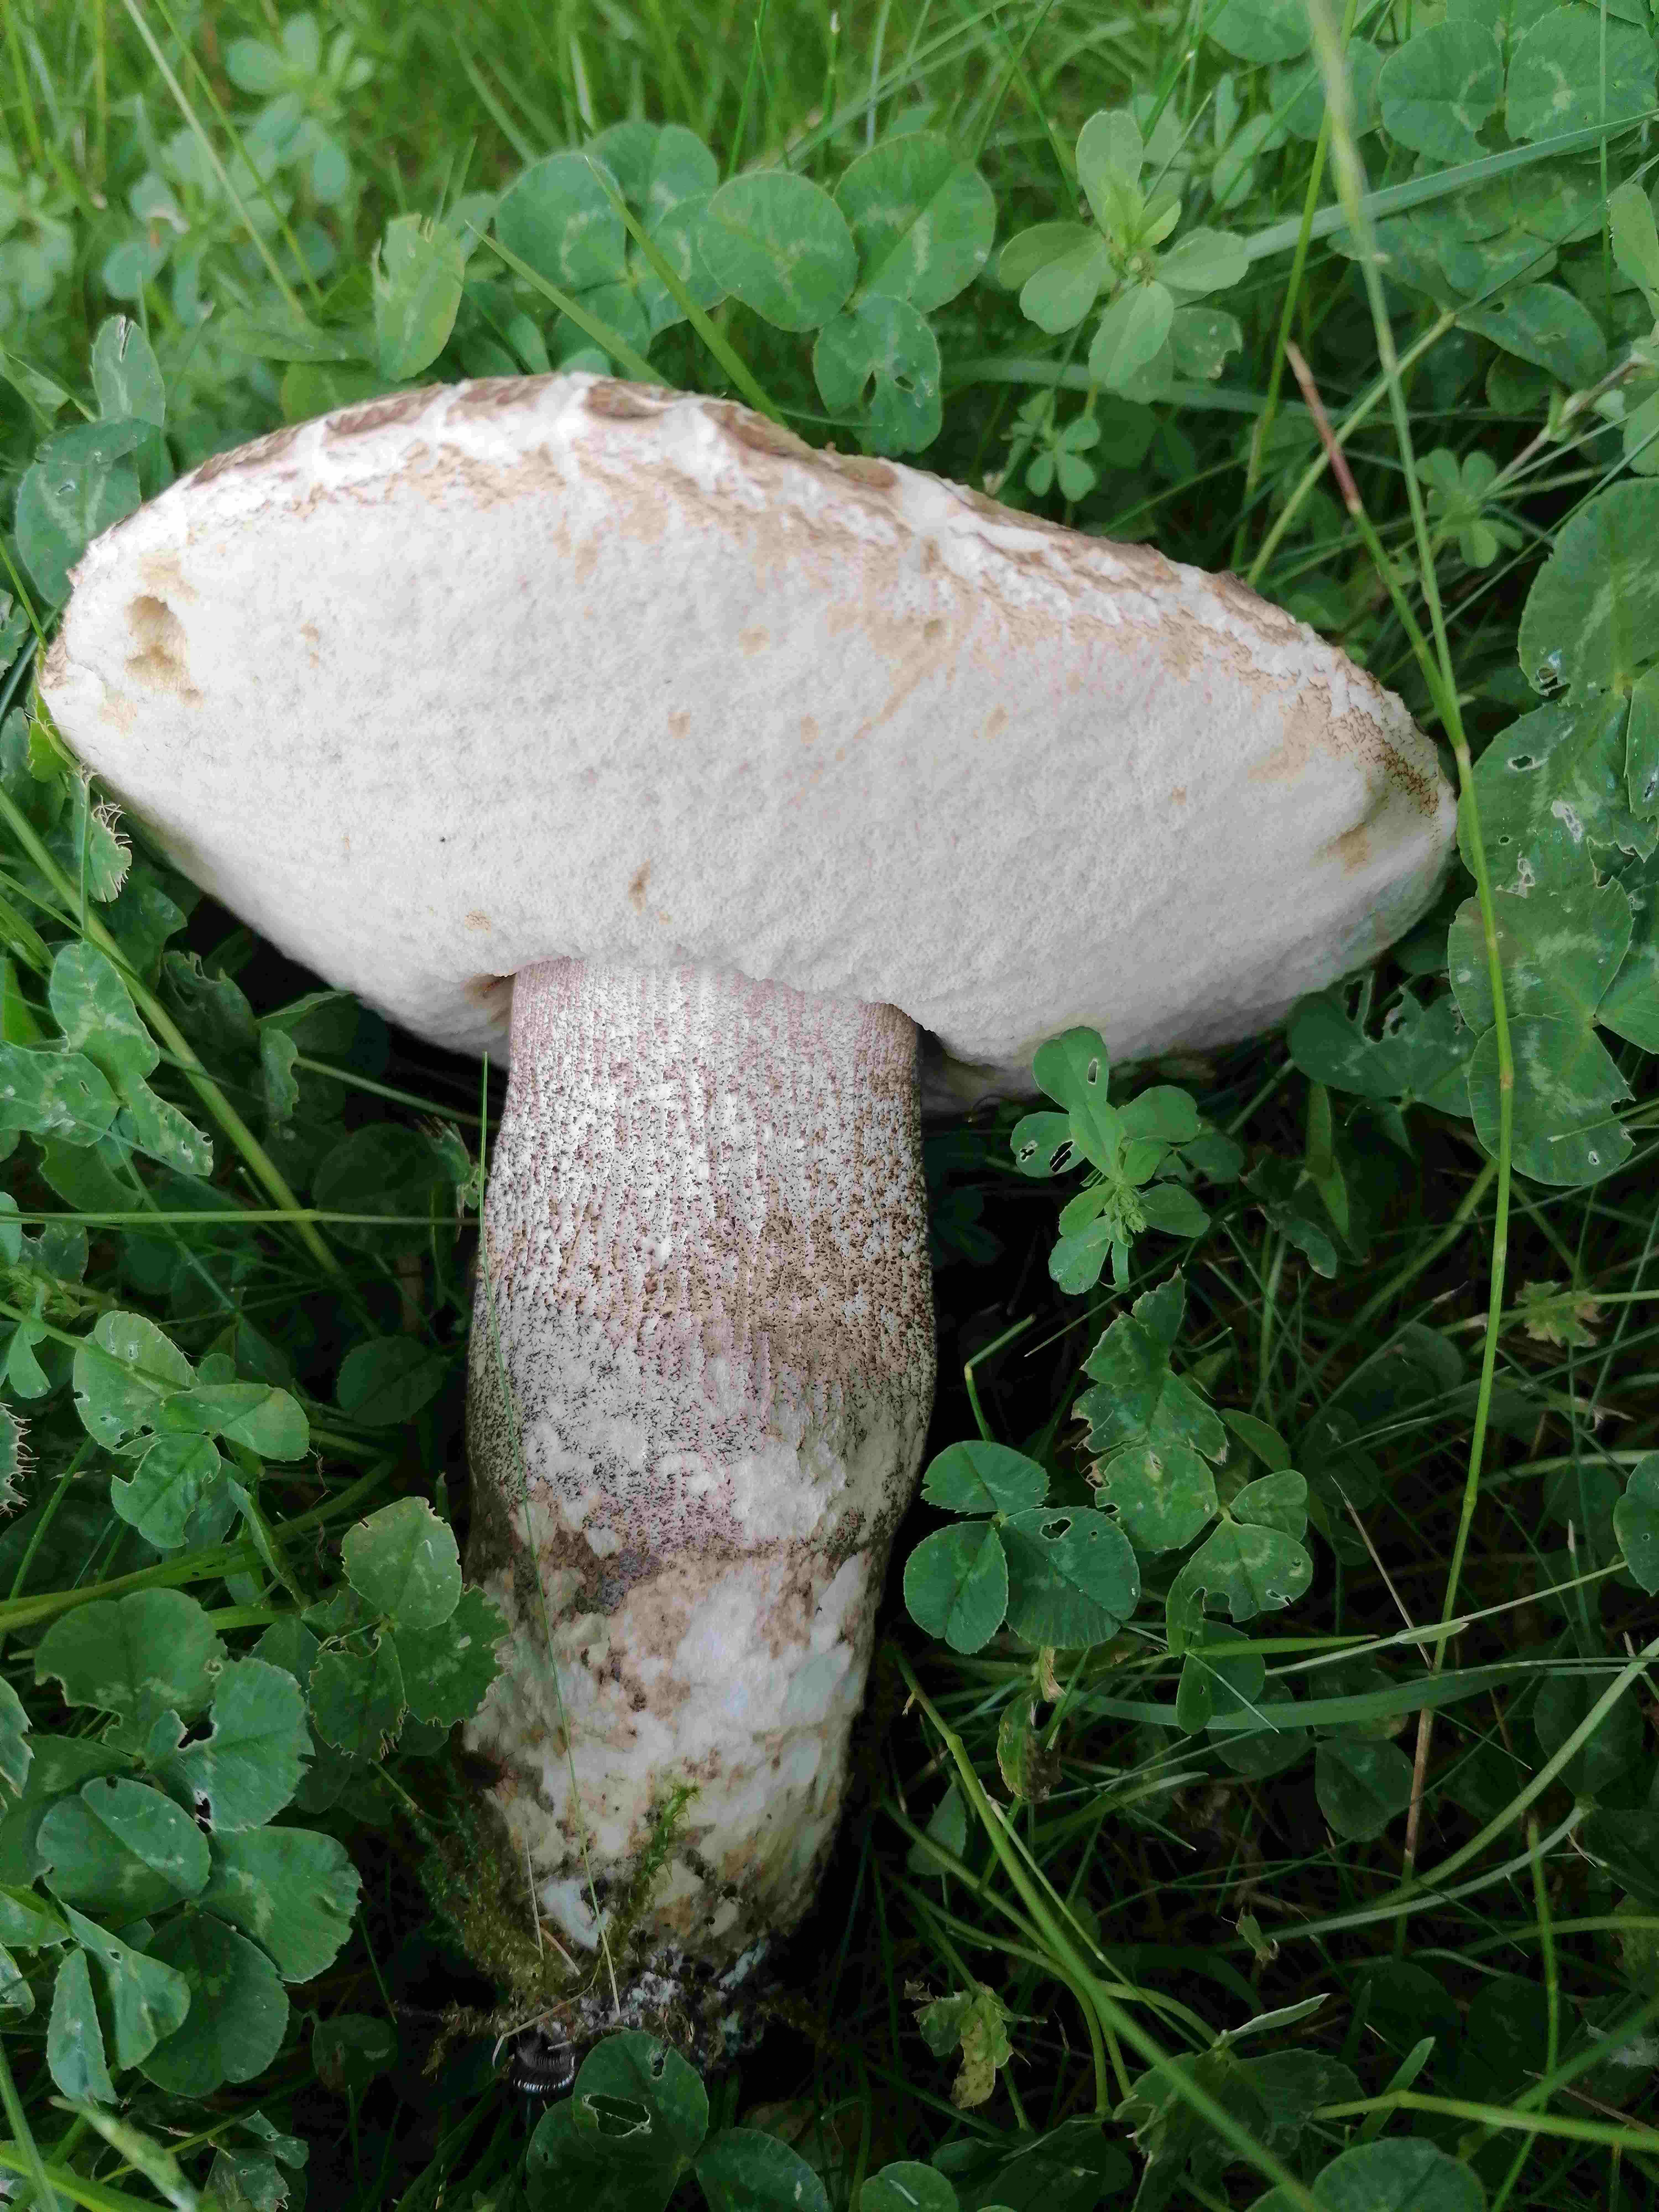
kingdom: Fungi
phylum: Basidiomycota
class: Agaricomycetes
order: Boletales
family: Boletaceae
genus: Leccinum
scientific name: Leccinum
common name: skælrørhat
